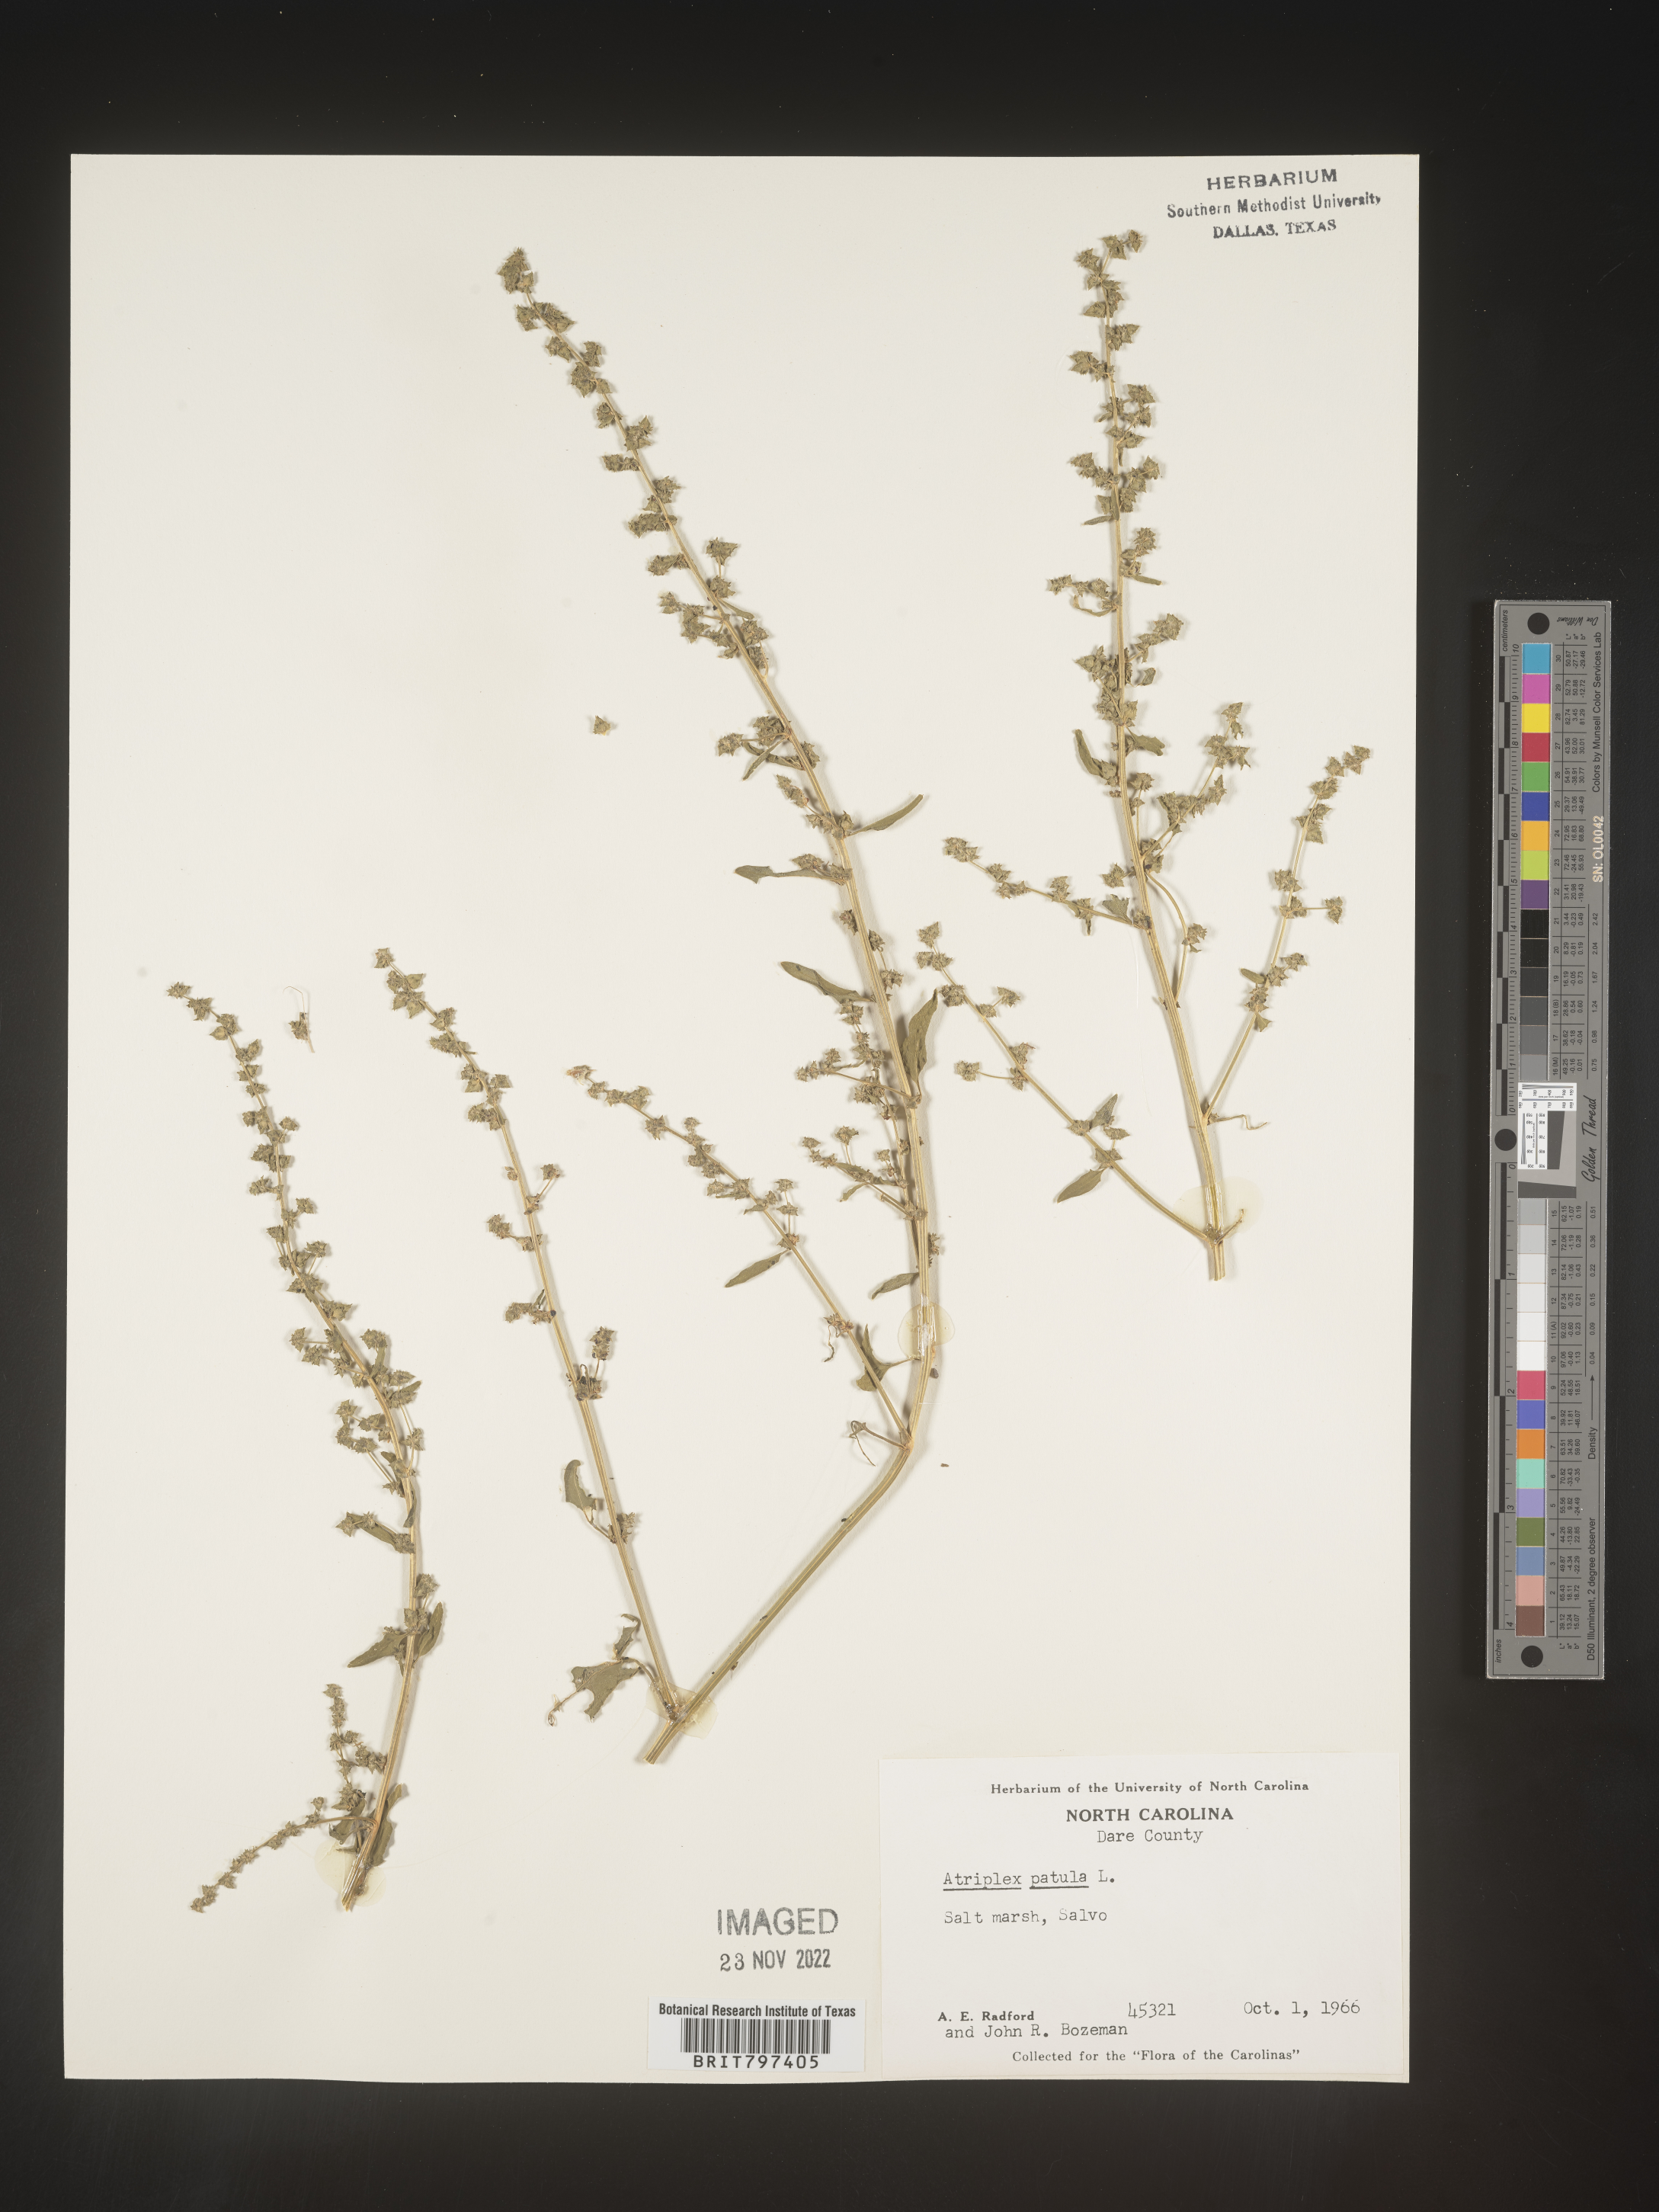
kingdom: Plantae
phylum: Tracheophyta
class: Magnoliopsida
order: Caryophyllales
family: Amaranthaceae
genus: Atriplex
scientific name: Atriplex prostrata
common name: Spear-leaved orache
